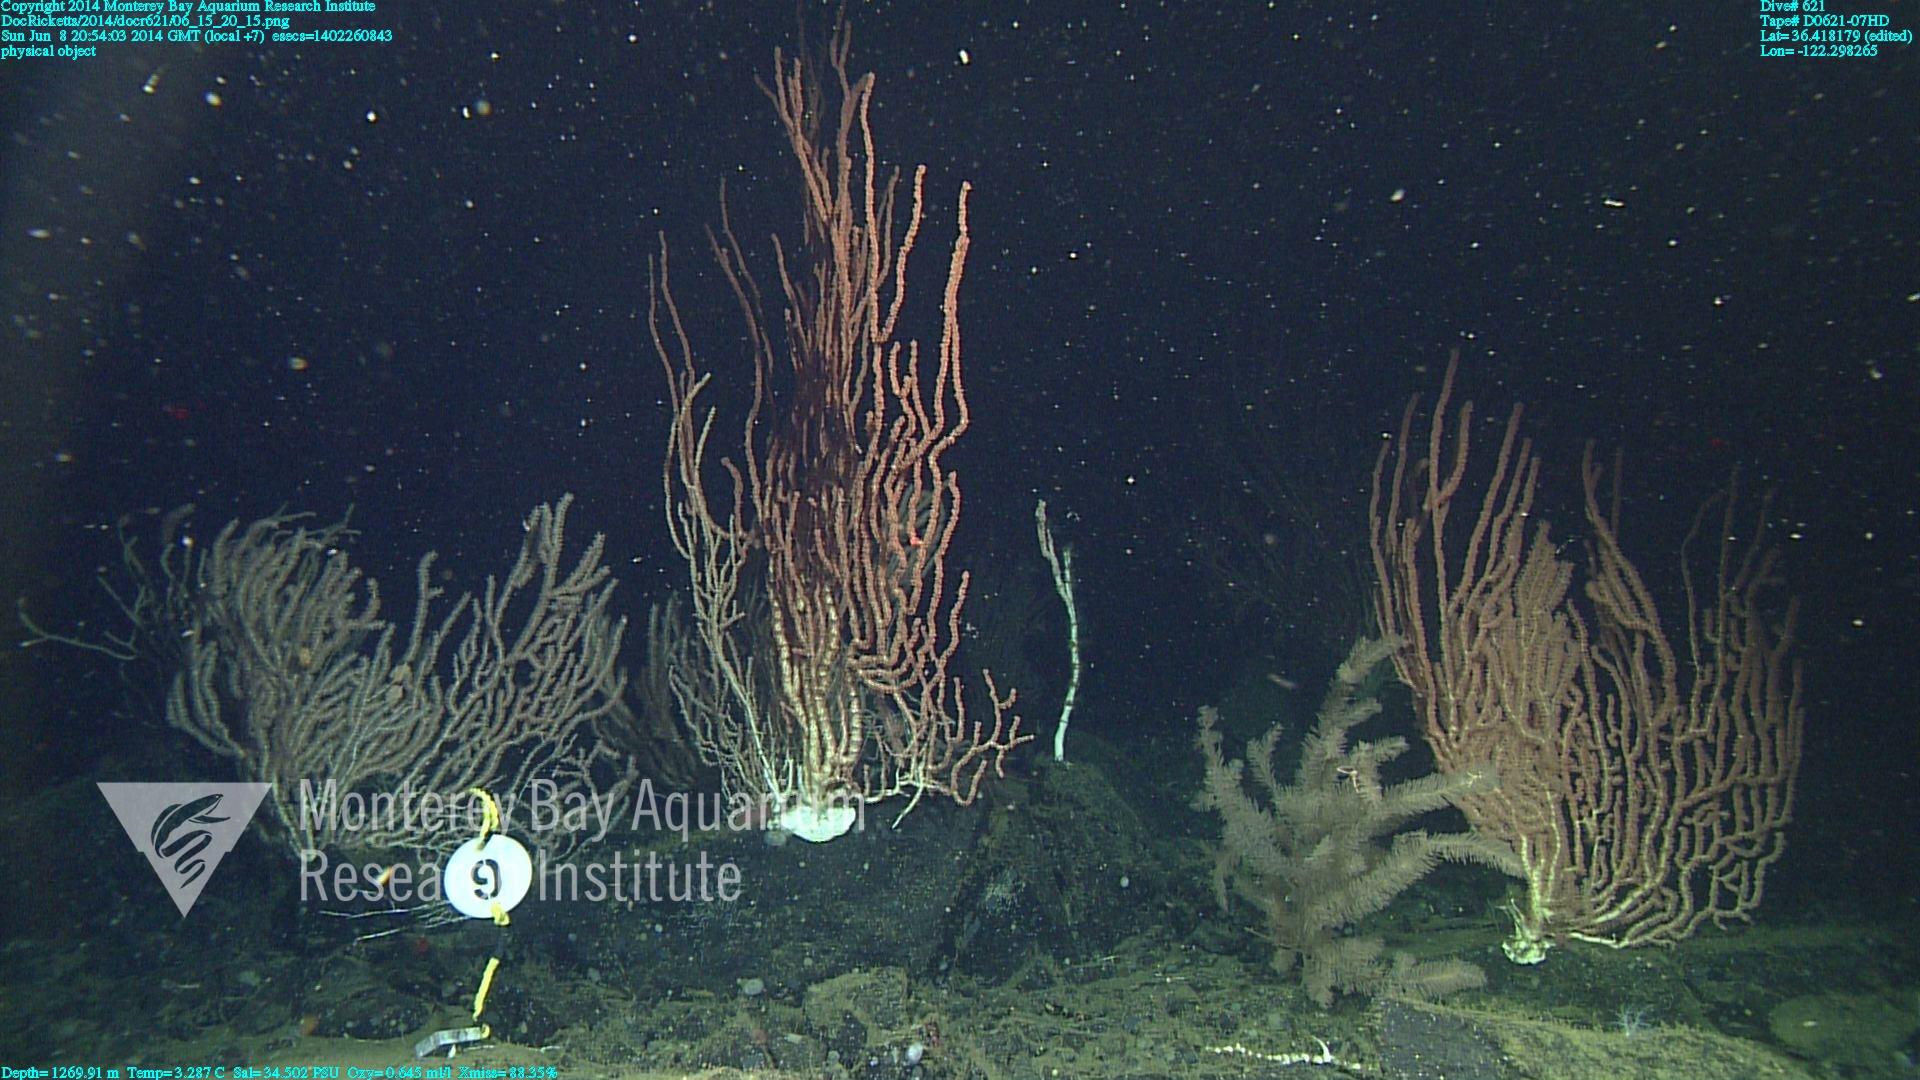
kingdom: Animalia
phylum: Cnidaria
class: Anthozoa
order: Scleralcyonacea
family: Keratoisididae
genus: Keratoisis
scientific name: Keratoisis
